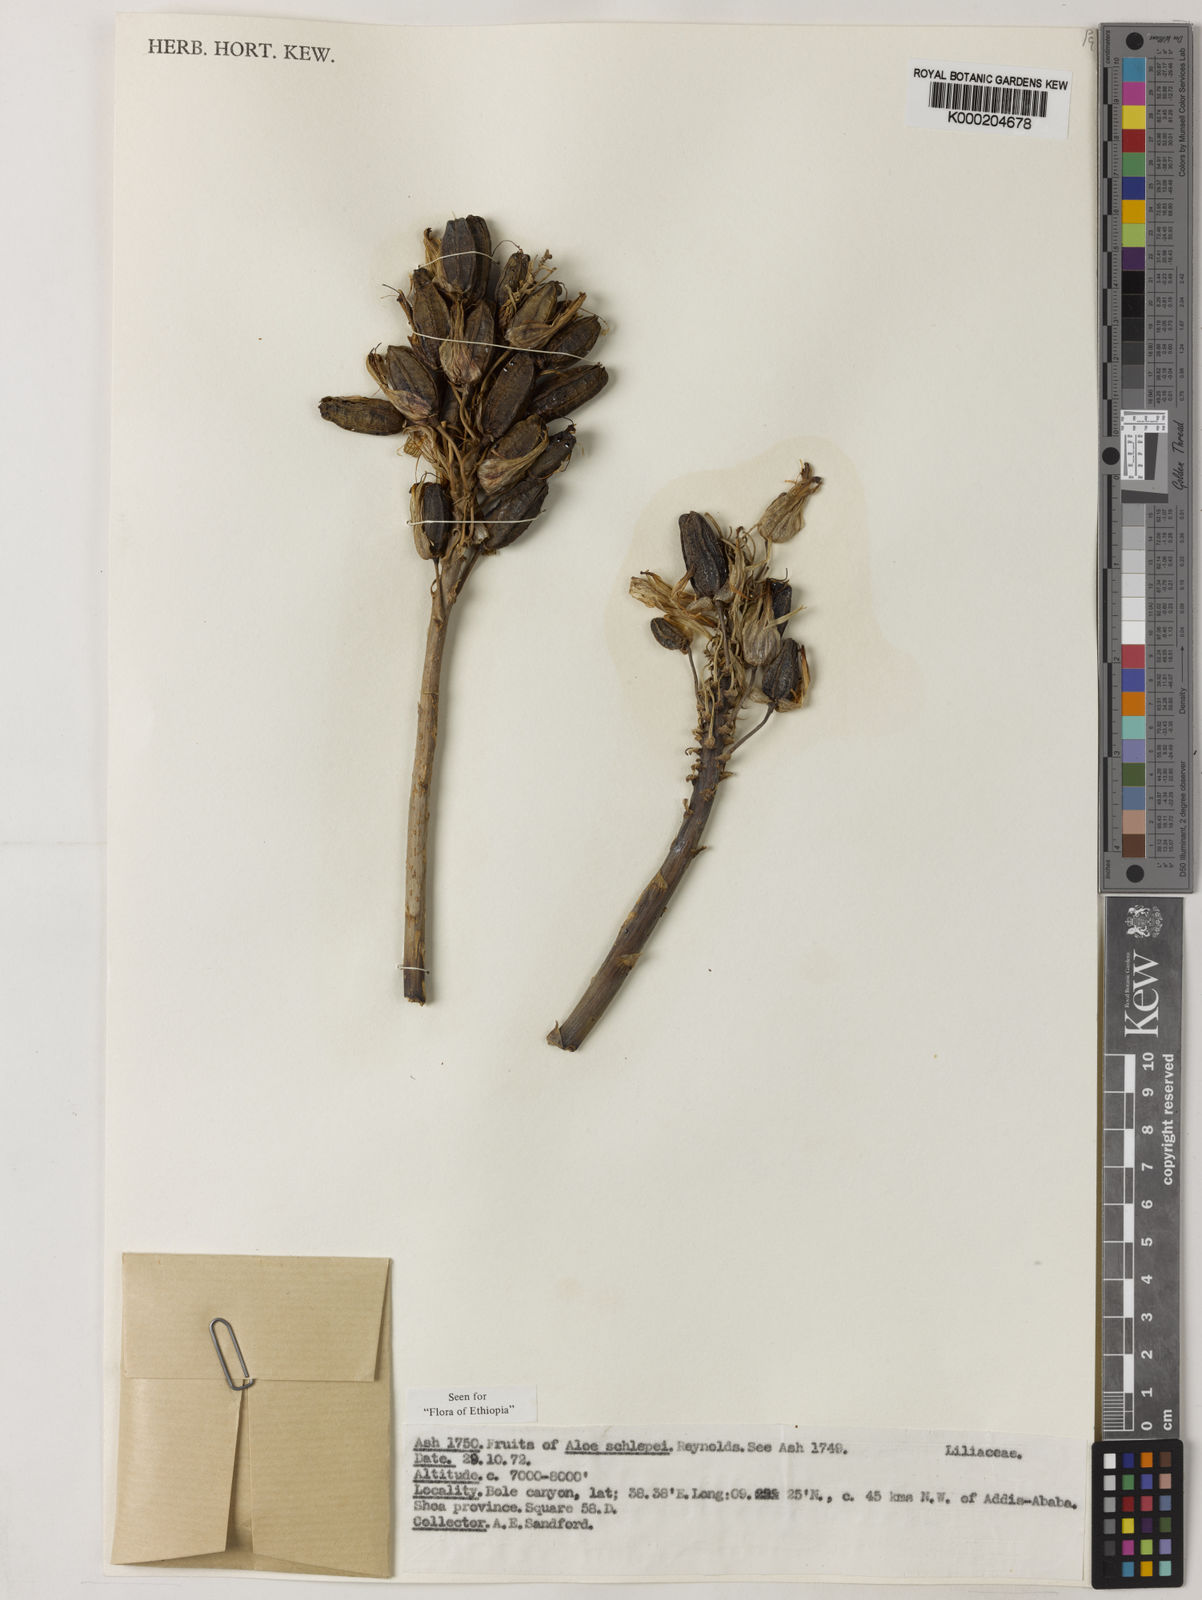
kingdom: Plantae
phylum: Tracheophyta
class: Liliopsida
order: Asparagales
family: Asphodelaceae
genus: Aloe
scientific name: Aloe schelpei
